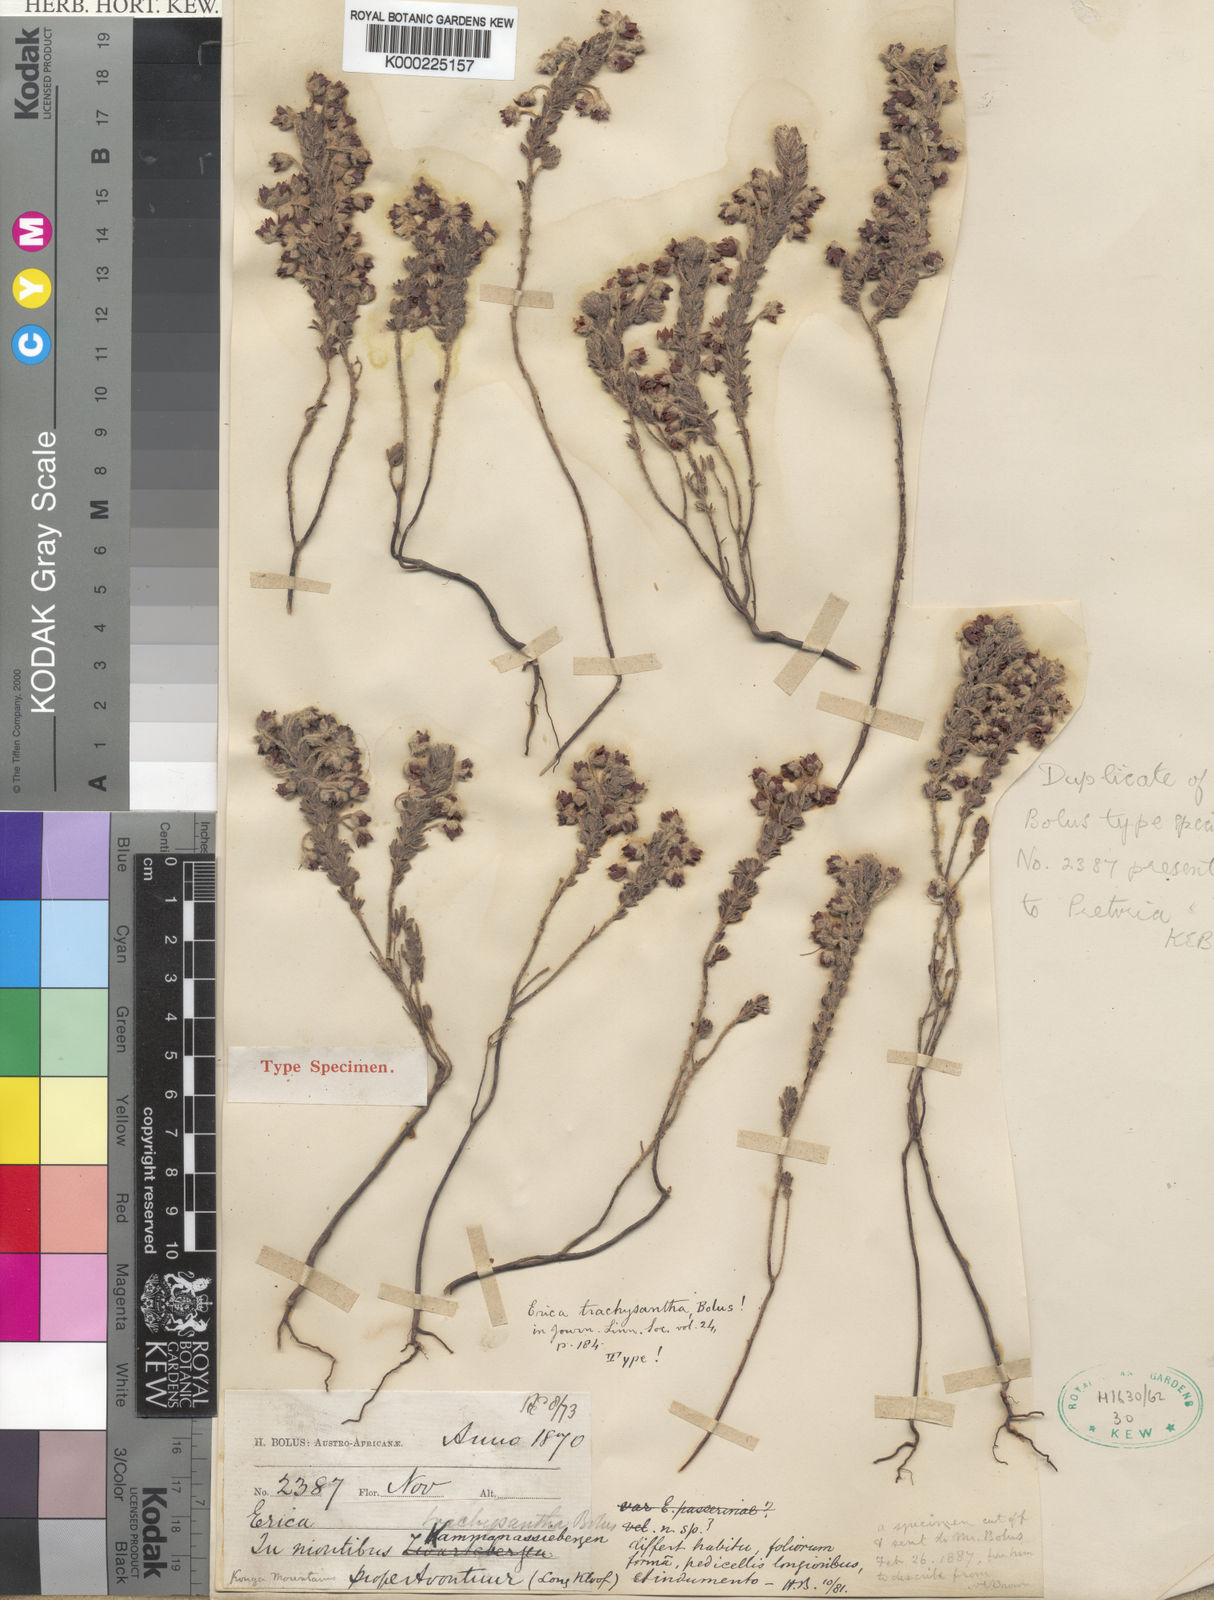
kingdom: Plantae
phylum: Tracheophyta
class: Magnoliopsida
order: Ericales
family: Ericaceae
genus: Erica
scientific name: Erica
